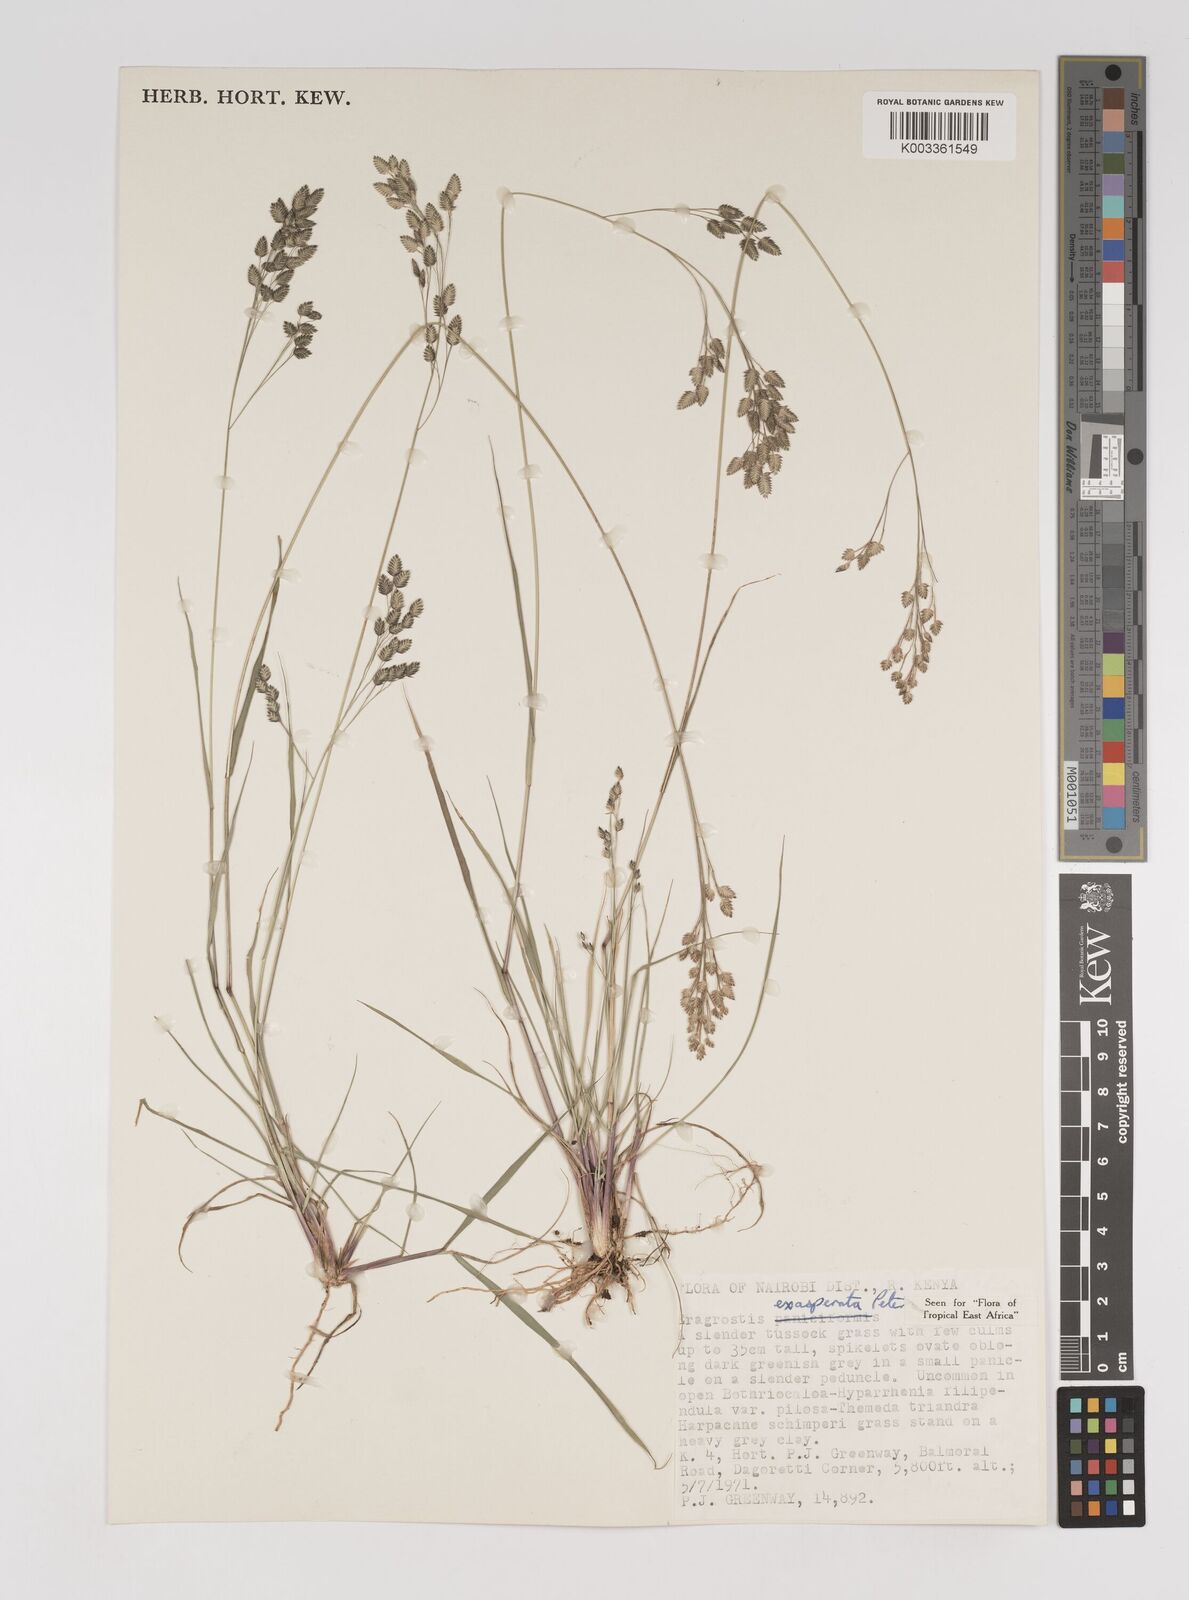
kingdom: Plantae
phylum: Tracheophyta
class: Liliopsida
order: Poales
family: Poaceae
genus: Eragrostis
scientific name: Eragrostis exasperata
